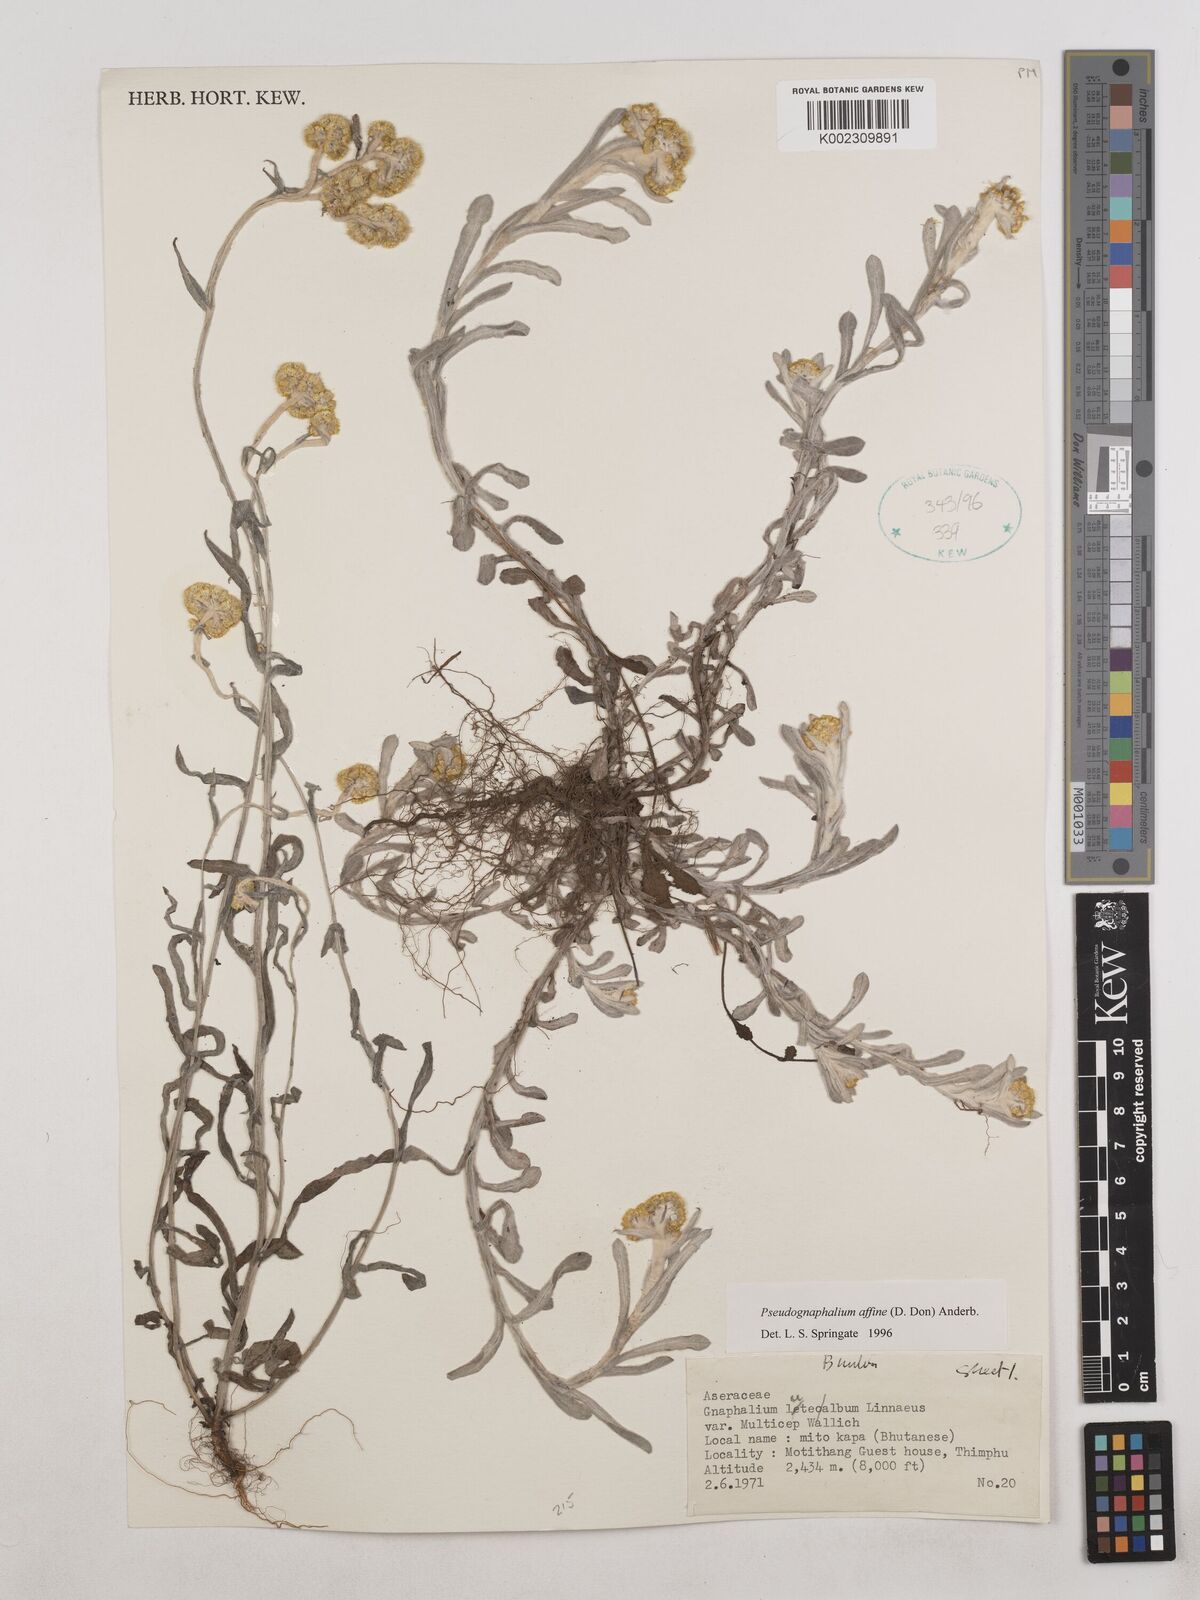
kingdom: Plantae
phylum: Tracheophyta
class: Magnoliopsida
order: Asterales
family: Asteraceae
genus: Pseudognaphalium
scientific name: Pseudognaphalium affine
